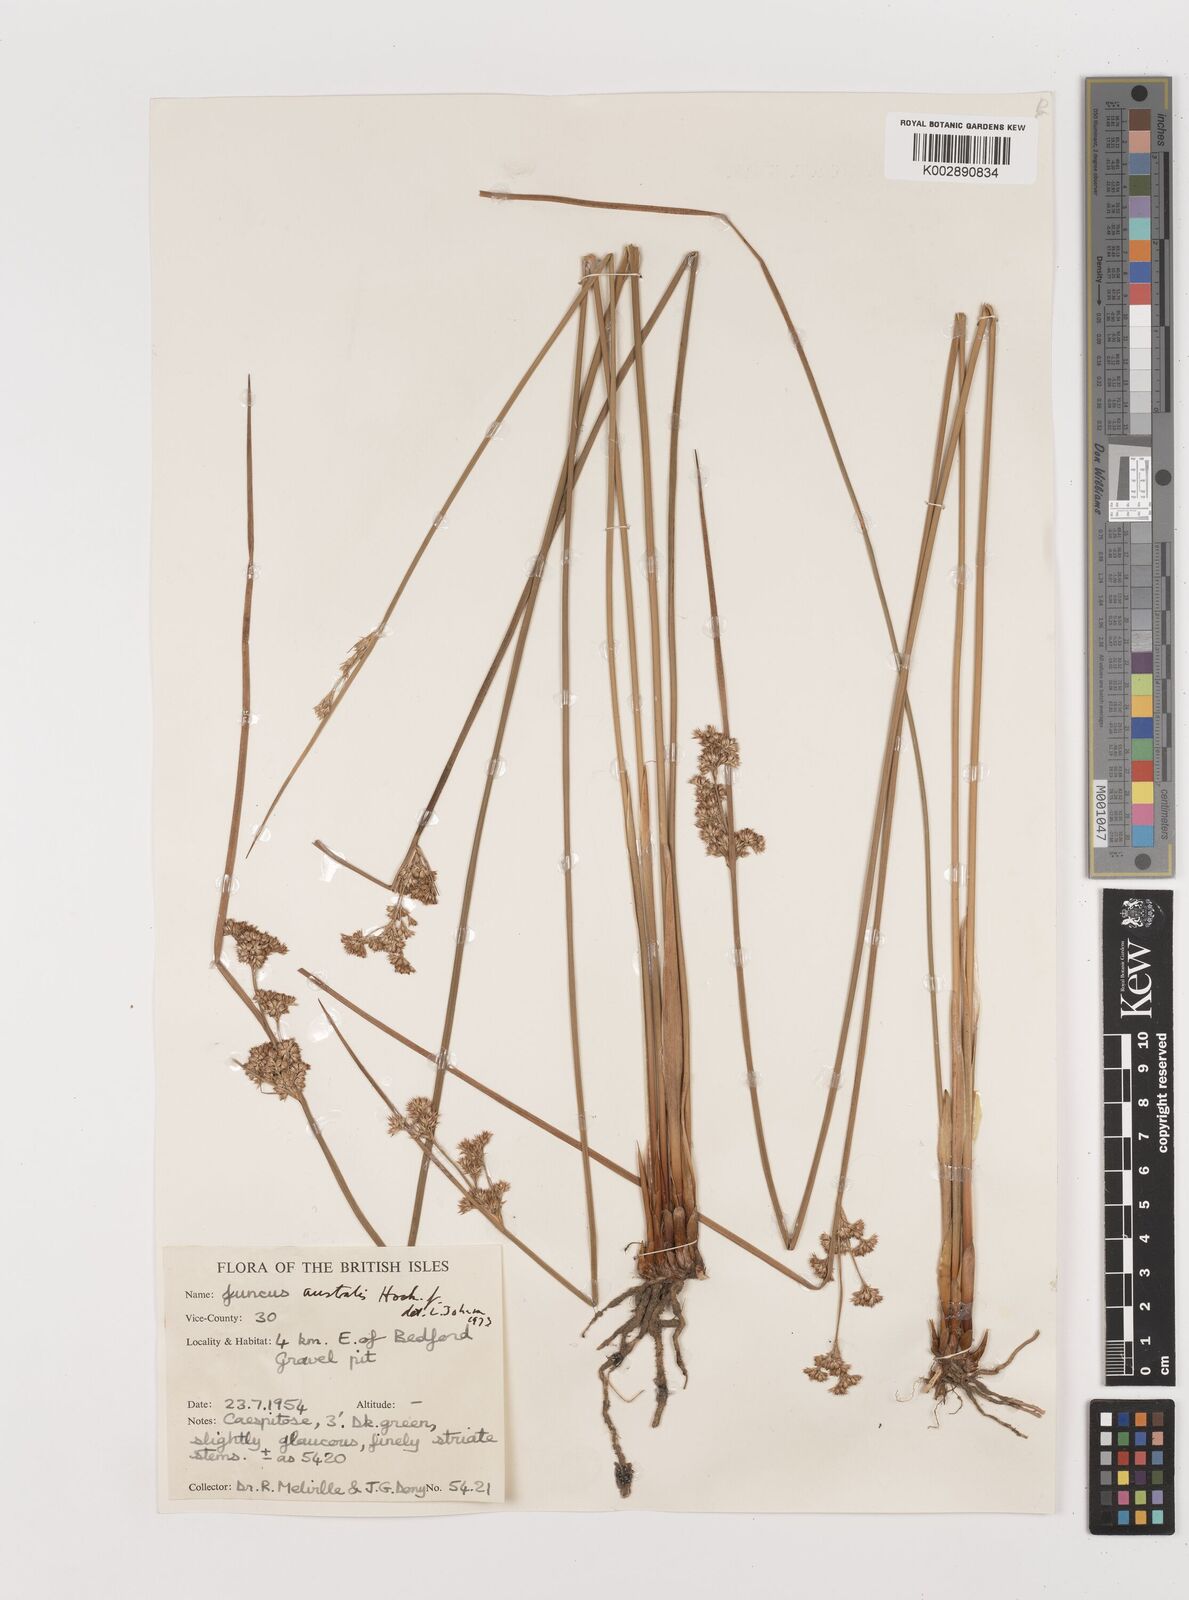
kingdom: Plantae
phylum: Tracheophyta
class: Liliopsida
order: Poales
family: Juncaceae
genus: Juncus
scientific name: Juncus australis
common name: Austral rush
